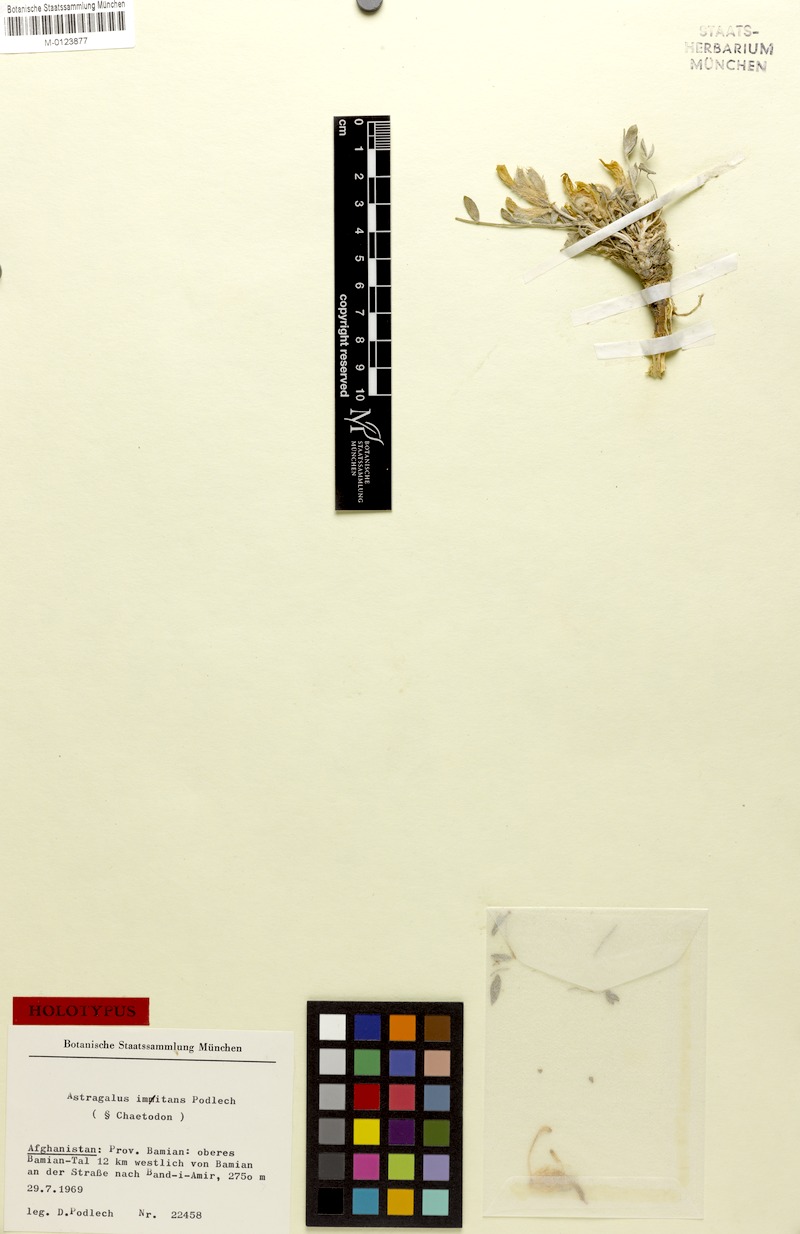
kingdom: Plantae
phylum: Tracheophyta
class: Magnoliopsida
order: Fabales
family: Fabaceae
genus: Astragalus
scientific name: Astragalus imitans
